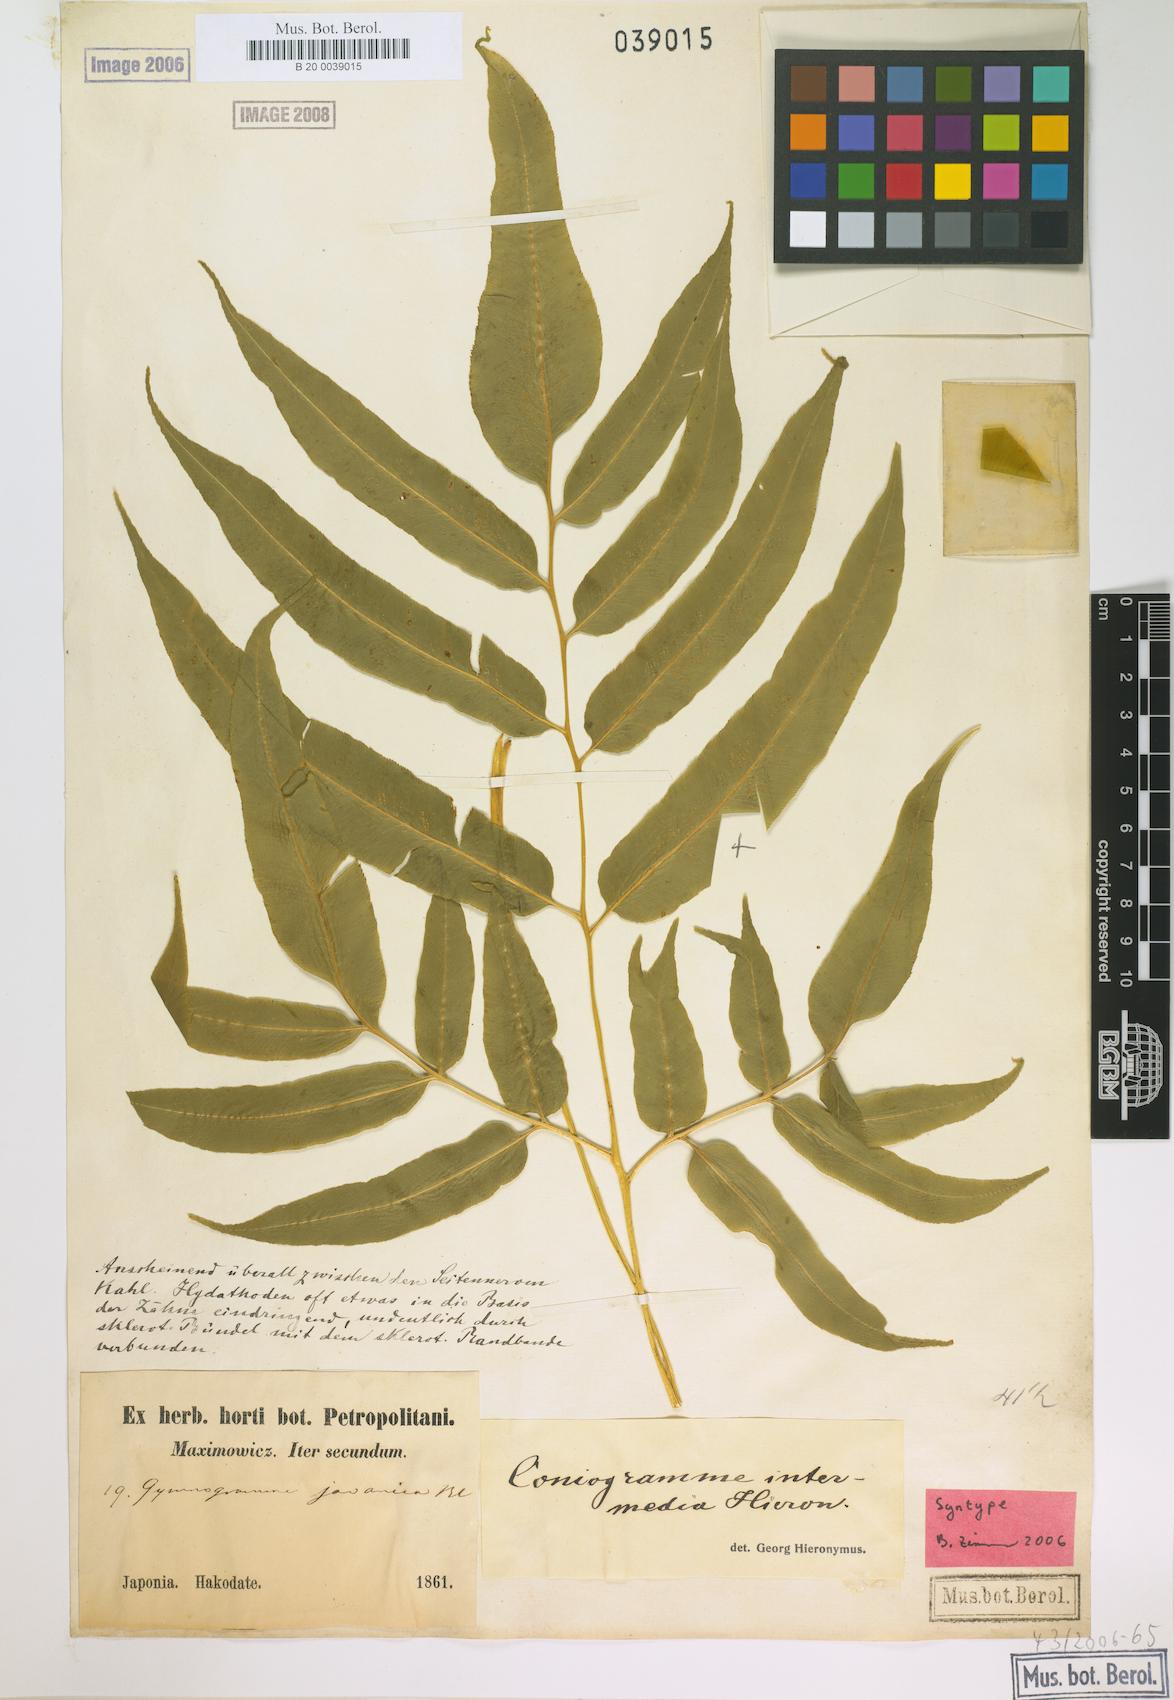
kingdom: Plantae
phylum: Tracheophyta
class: Polypodiopsida
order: Polypodiales
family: Pteridaceae
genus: Coniogramme
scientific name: Coniogramme intermedia
